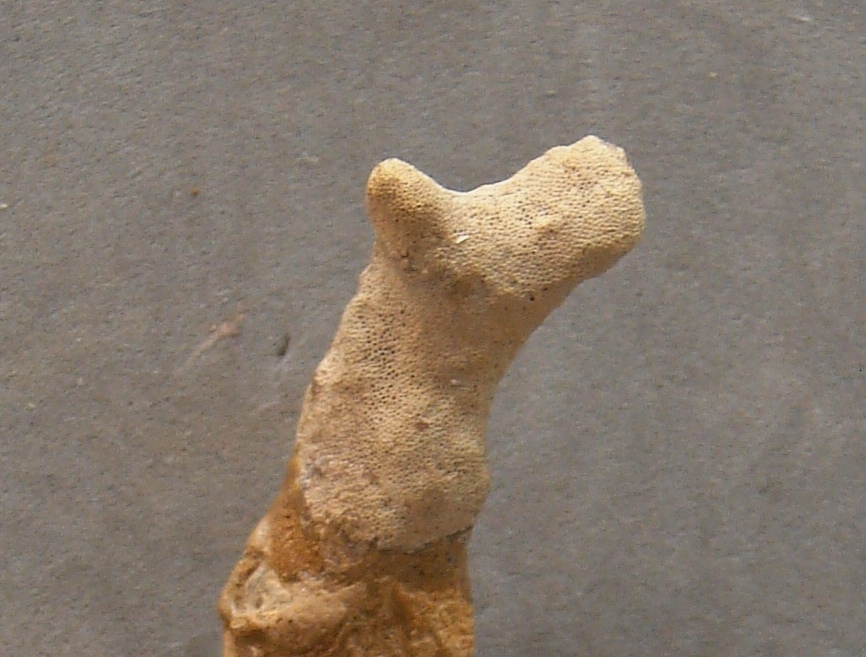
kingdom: Animalia
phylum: Bryozoa
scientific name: Bryozoa
